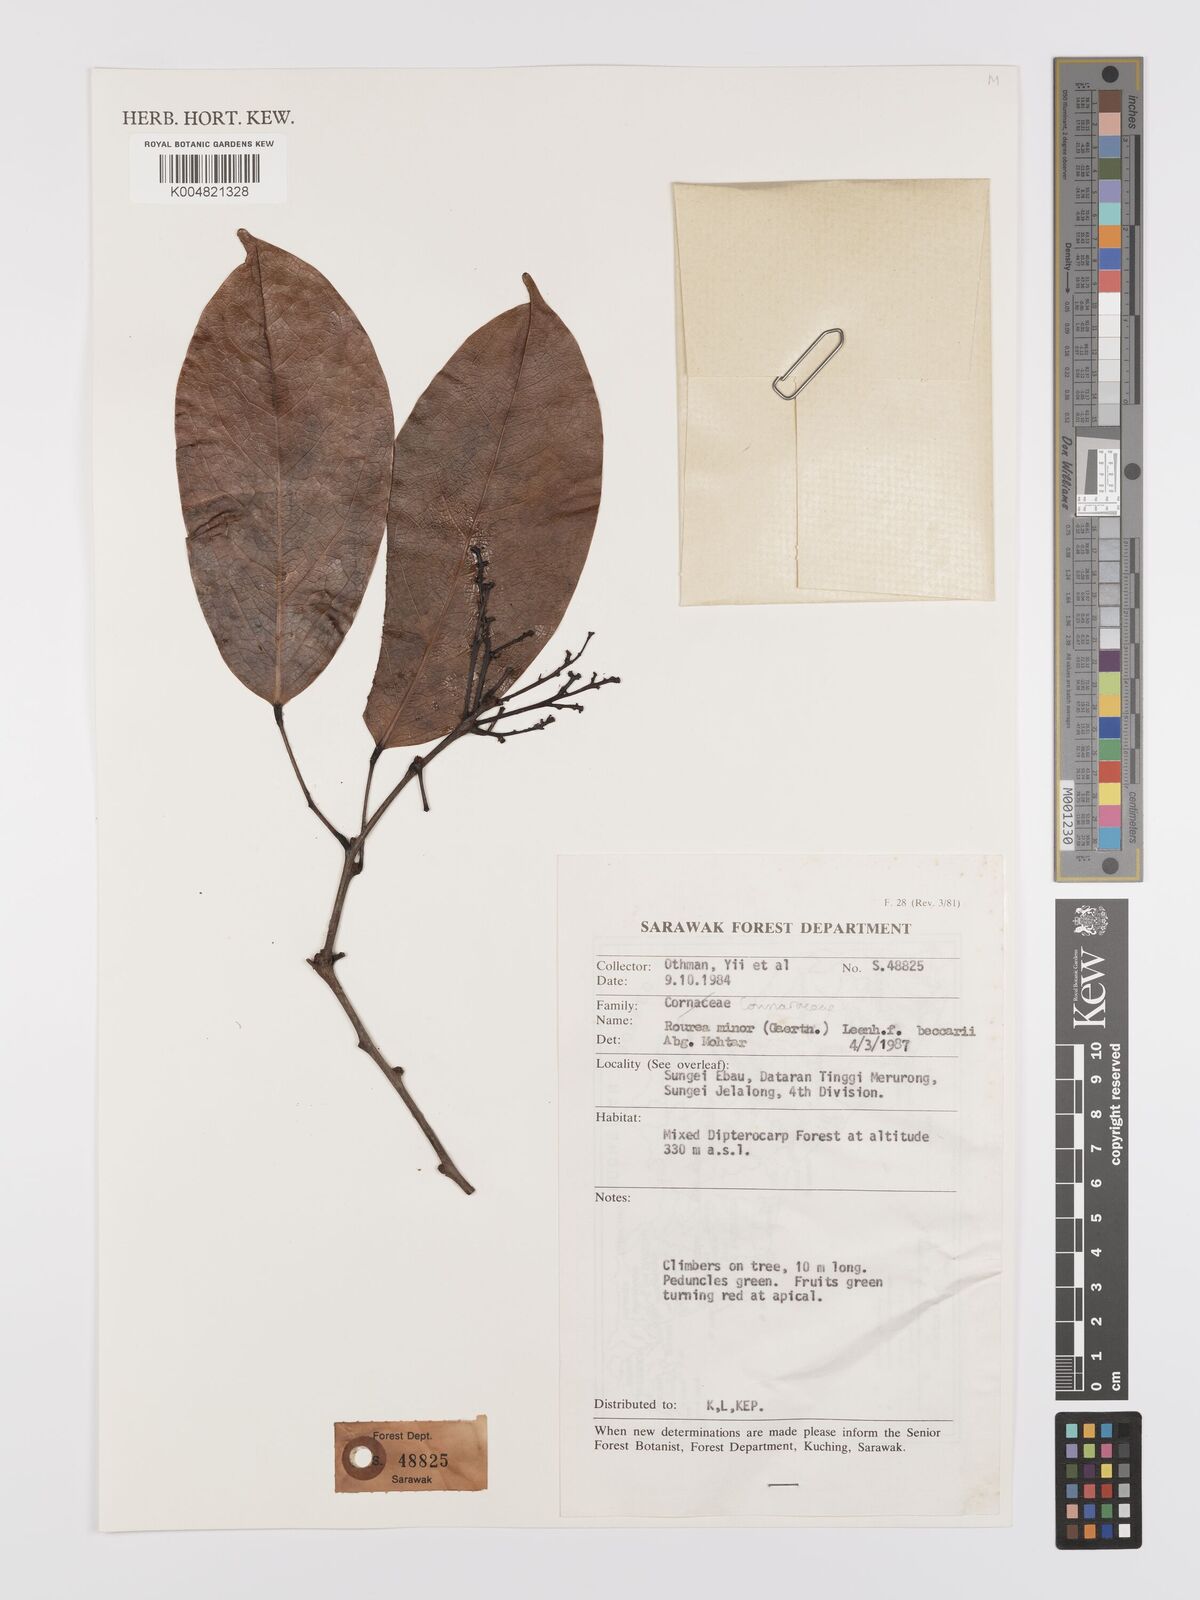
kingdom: Plantae
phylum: Tracheophyta
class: Magnoliopsida
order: Oxalidales
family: Connaraceae
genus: Rourea
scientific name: Rourea minor
